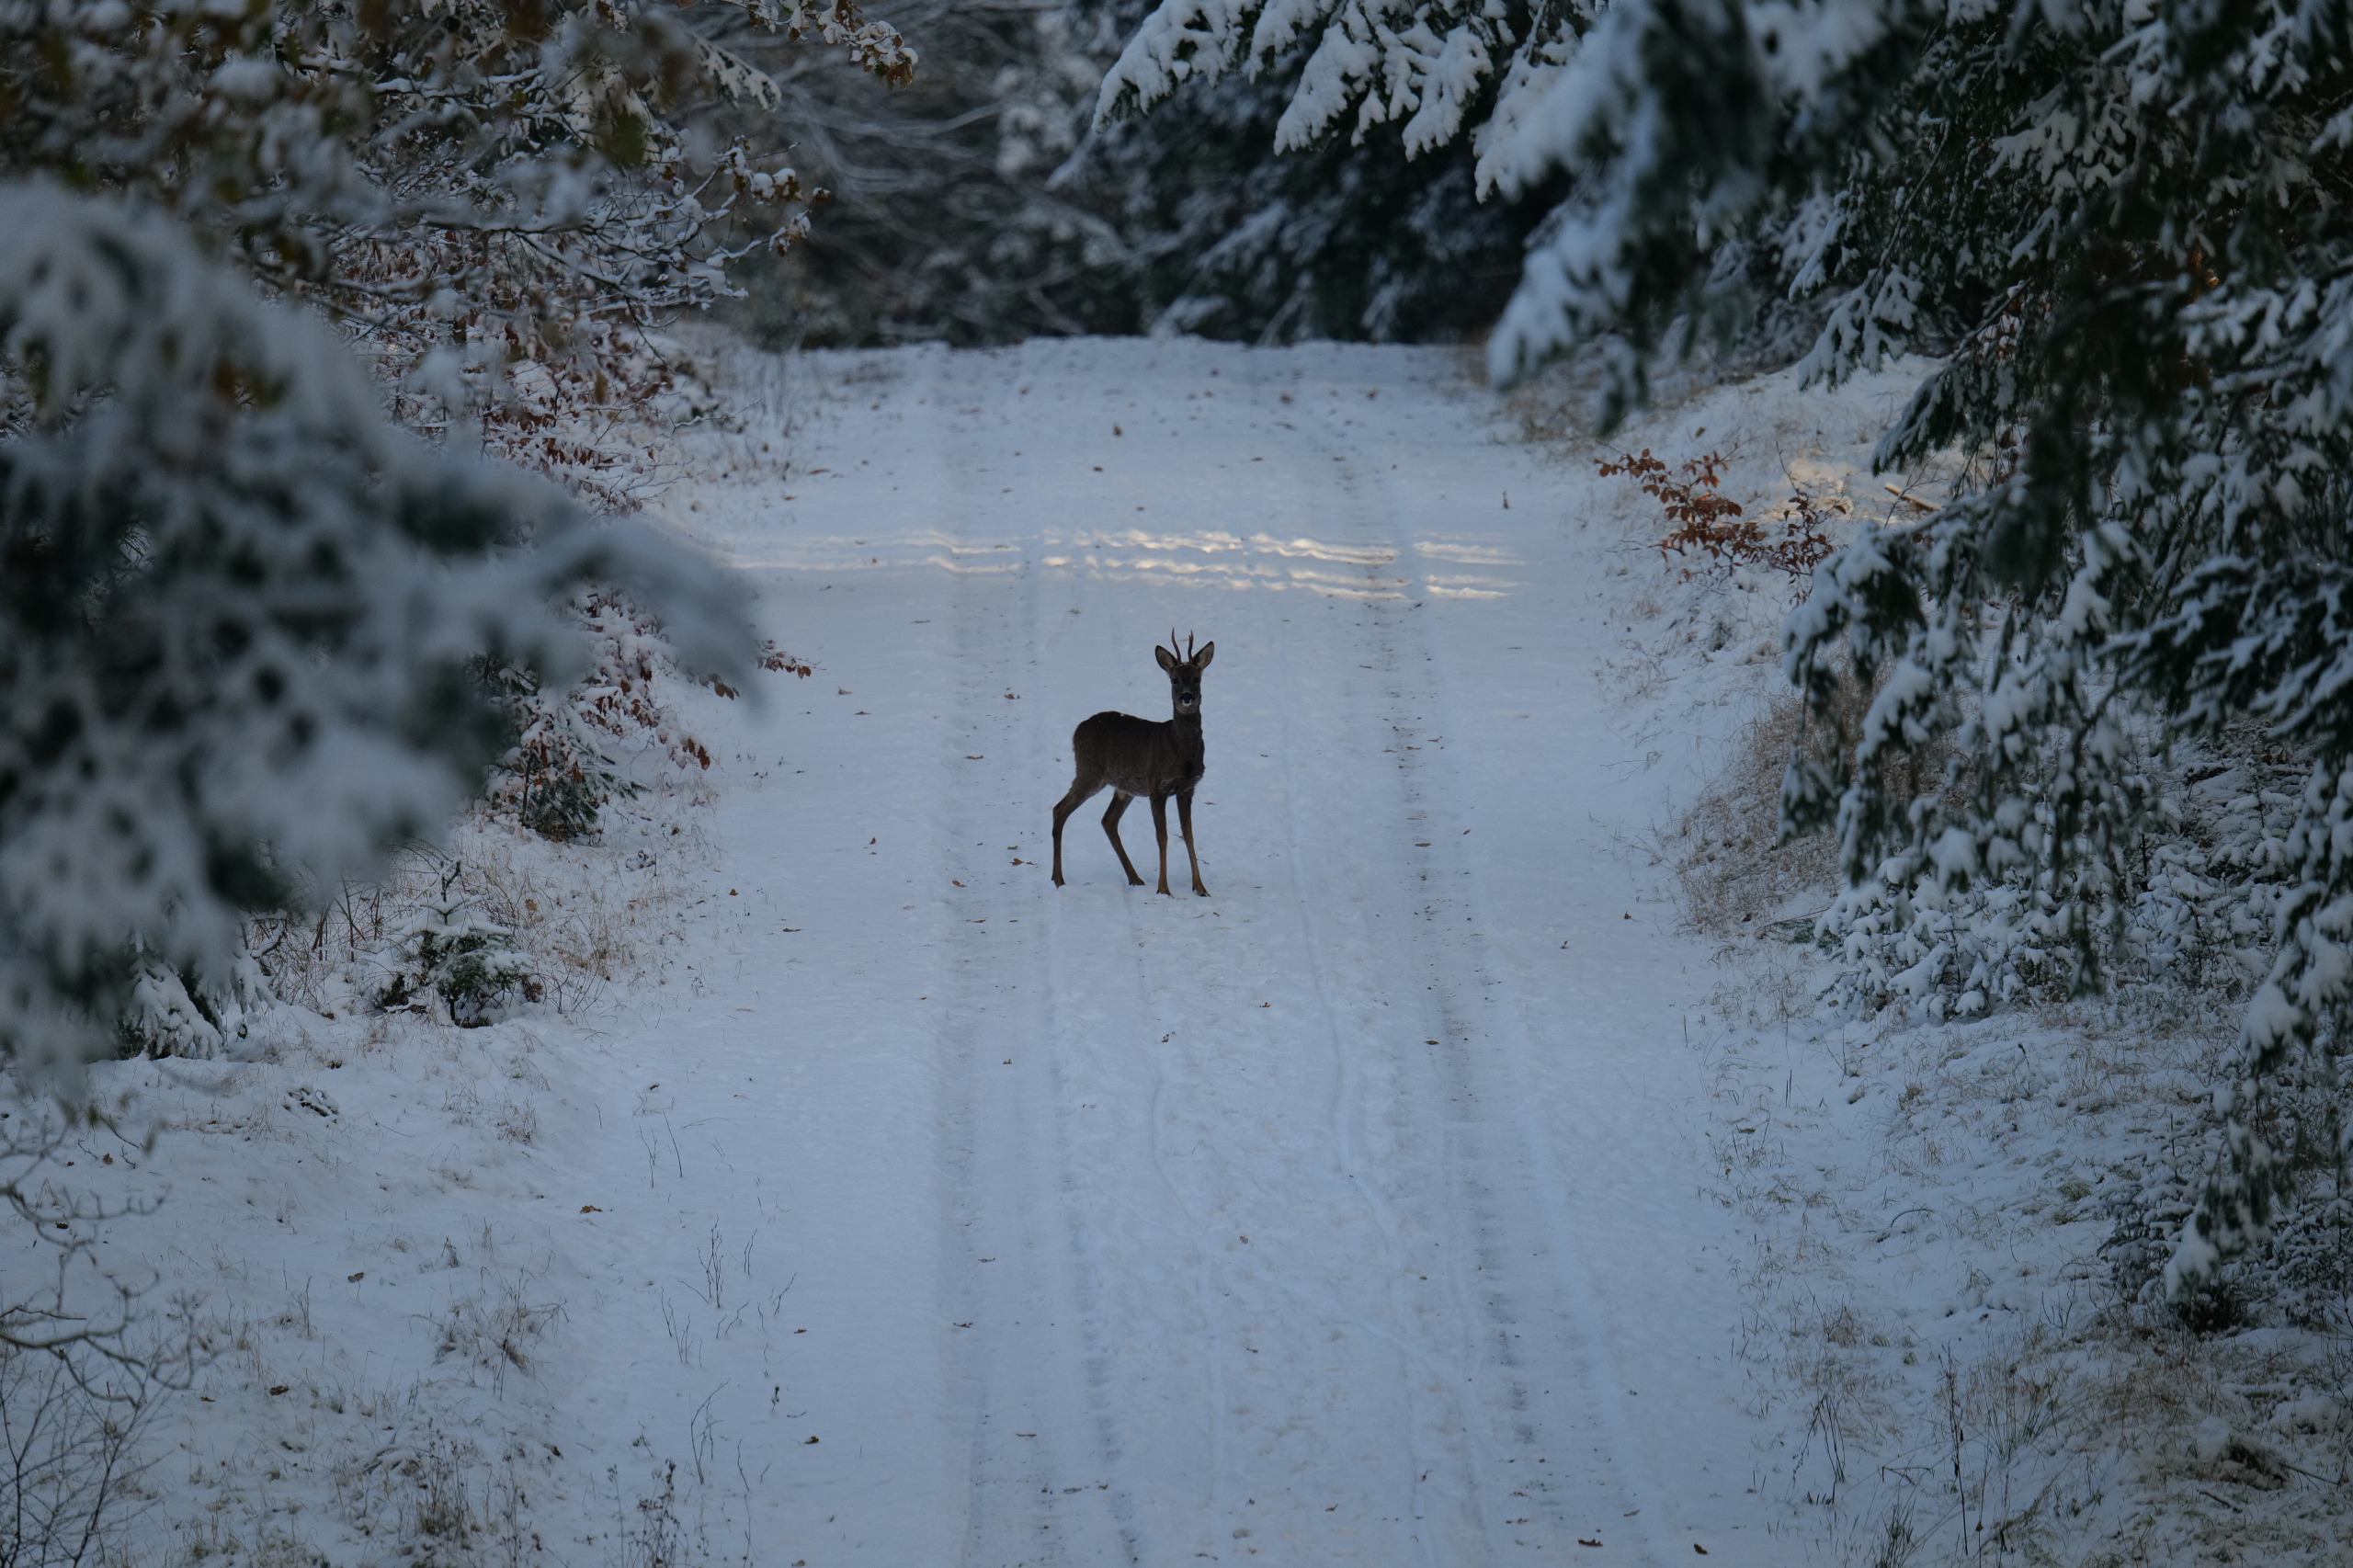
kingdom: Animalia
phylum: Chordata
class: Mammalia
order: Artiodactyla
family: Cervidae
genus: Capreolus
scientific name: Capreolus capreolus
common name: Rådyr
